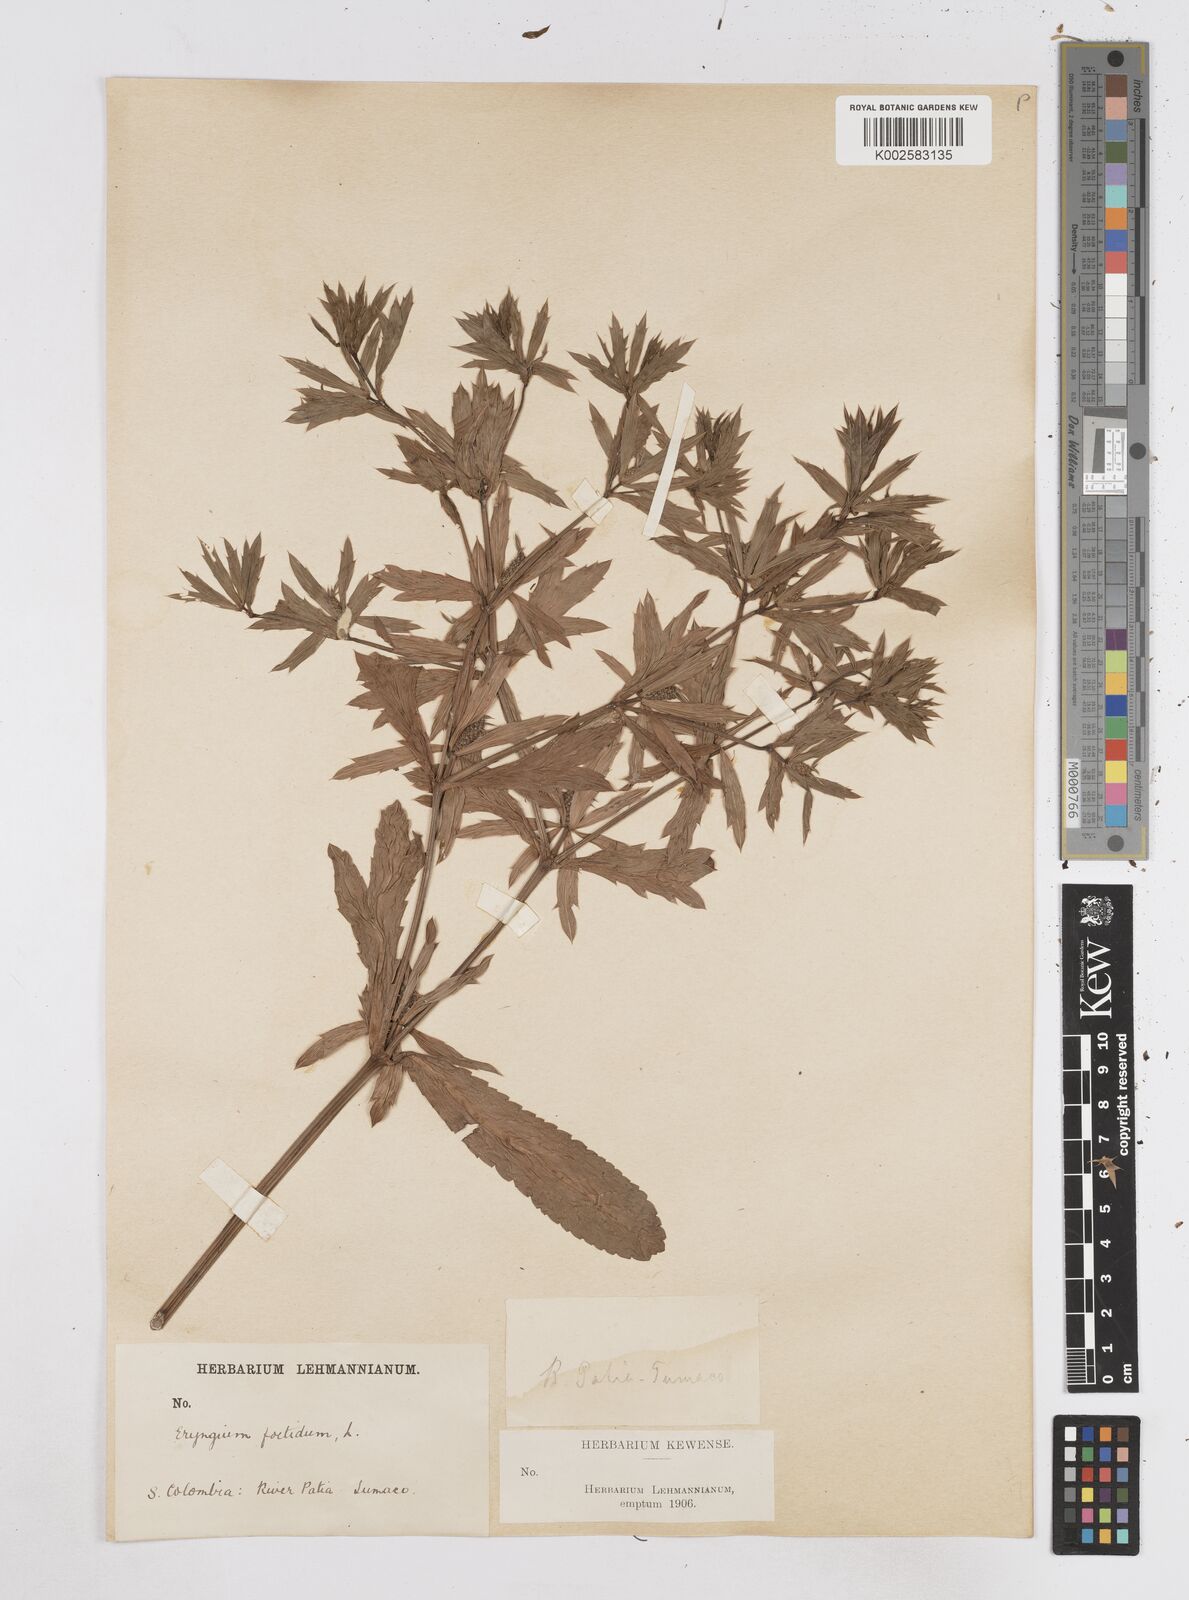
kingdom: Plantae
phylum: Tracheophyta
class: Magnoliopsida
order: Apiales
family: Apiaceae
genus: Eryngium
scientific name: Eryngium foetidum
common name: Fitweed
